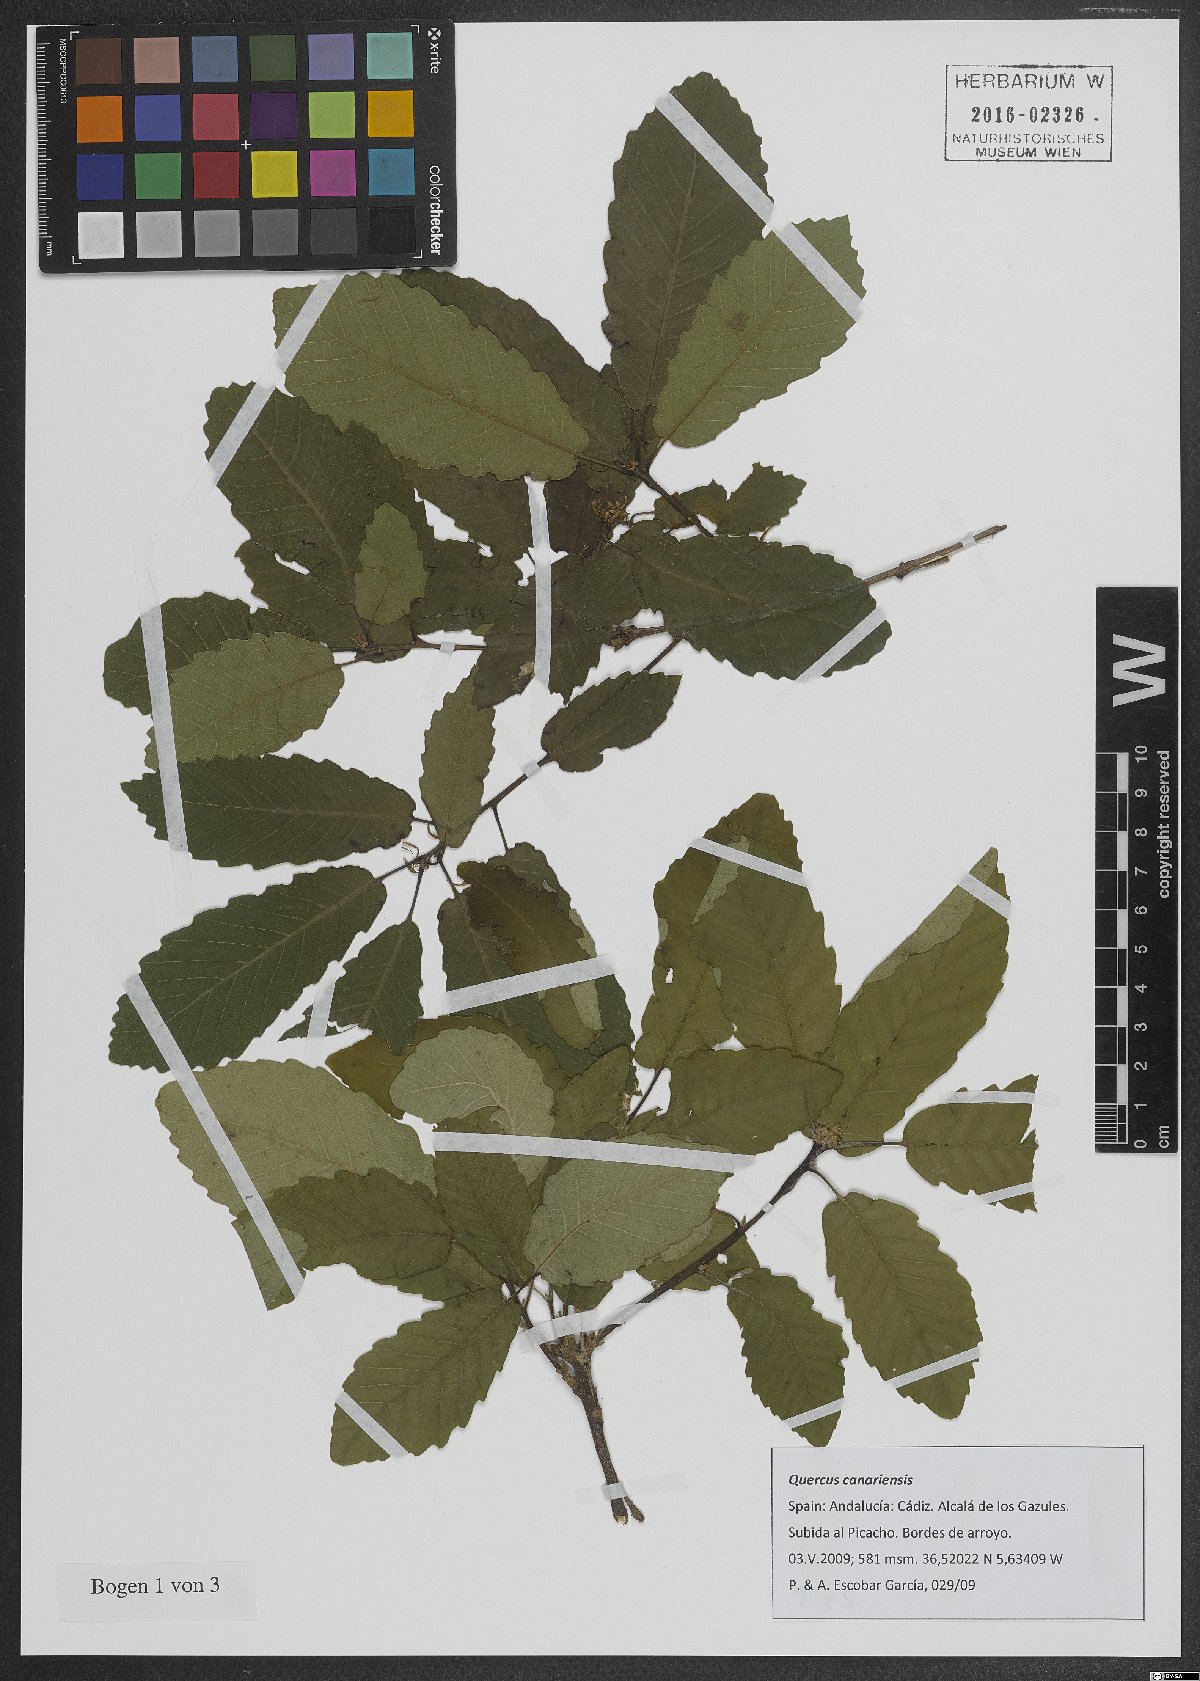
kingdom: Plantae
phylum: Tracheophyta
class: Magnoliopsida
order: Fagales
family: Fagaceae
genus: Quercus
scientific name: Quercus canariensis
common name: Algerian oak
